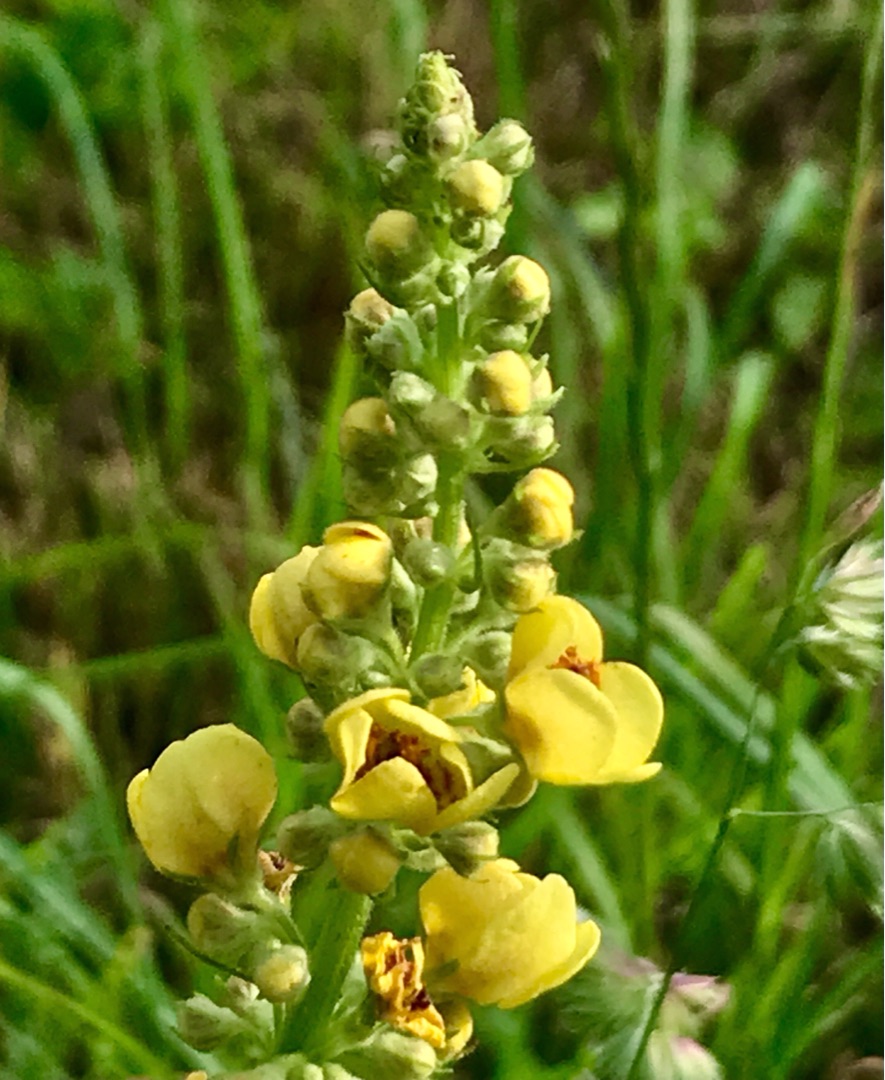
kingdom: Plantae
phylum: Tracheophyta
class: Magnoliopsida
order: Lamiales
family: Scrophulariaceae
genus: Verbascum
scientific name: Verbascum nigrum
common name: Mørk kongelys
